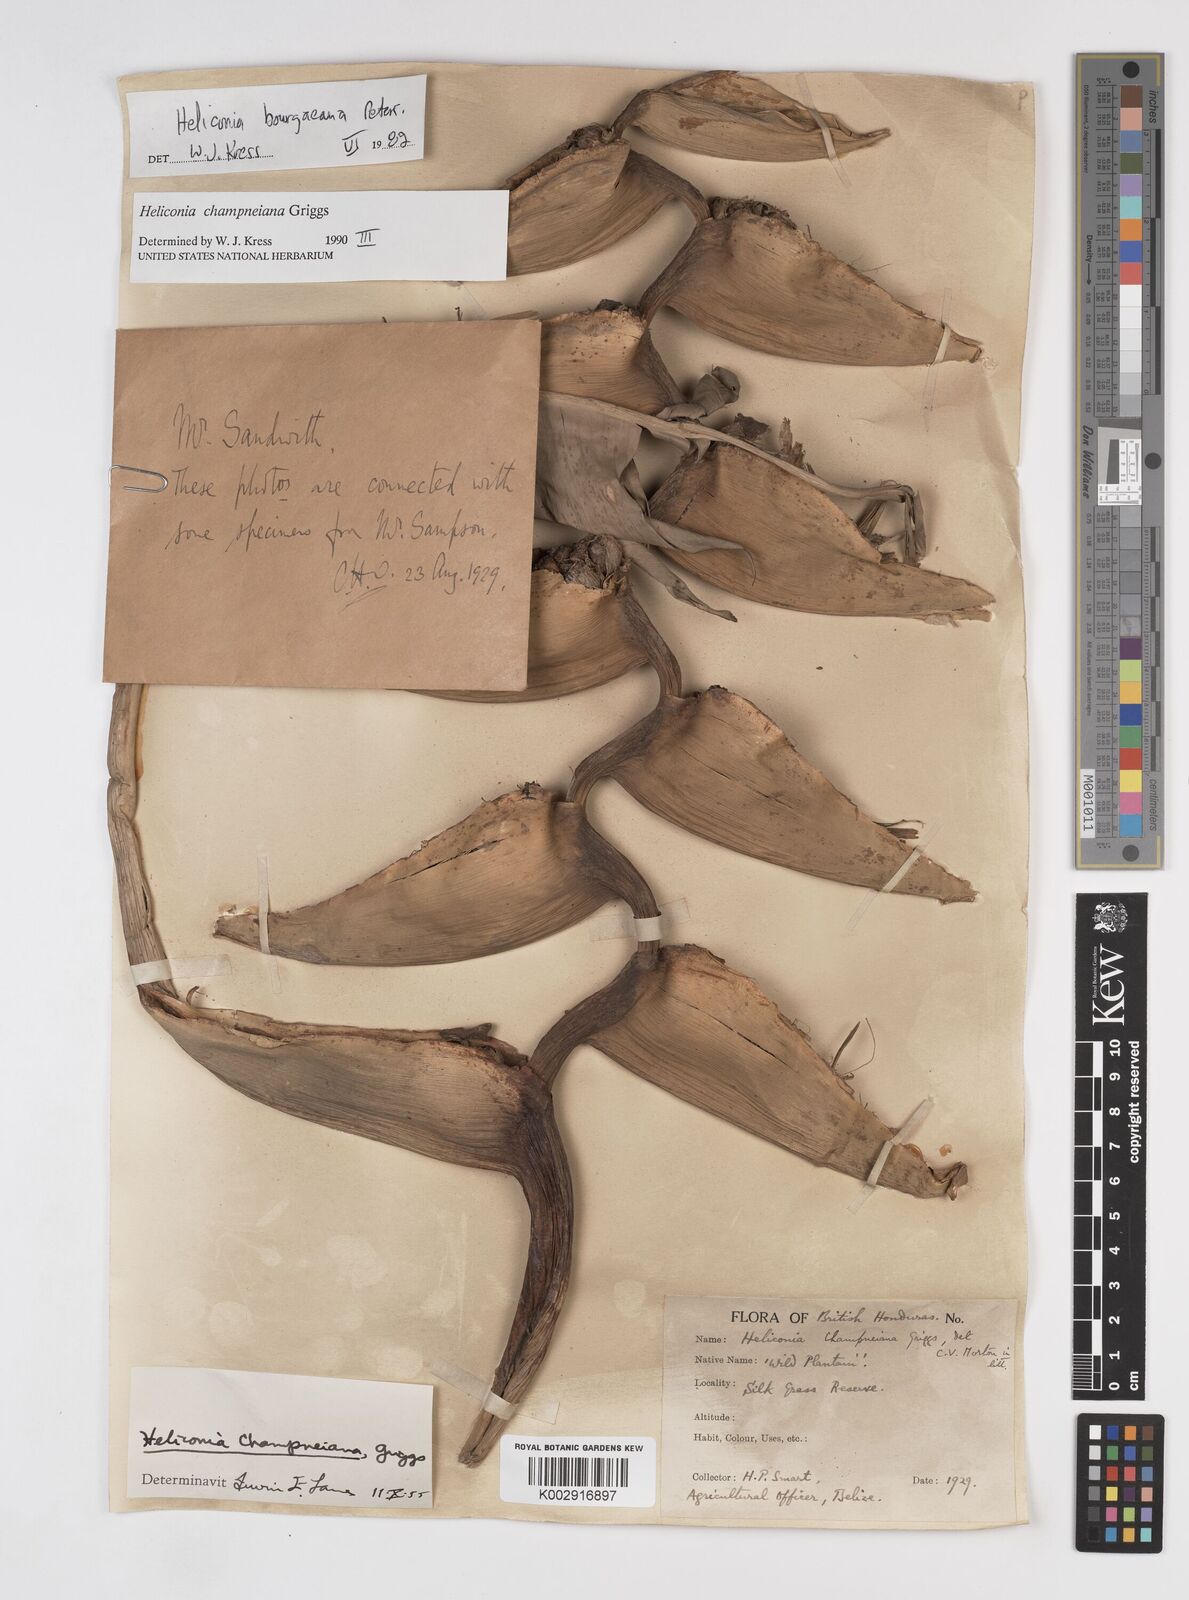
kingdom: Plantae
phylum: Tracheophyta
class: Liliopsida
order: Zingiberales
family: Heliconiaceae
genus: Heliconia
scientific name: Heliconia bourgaeana
